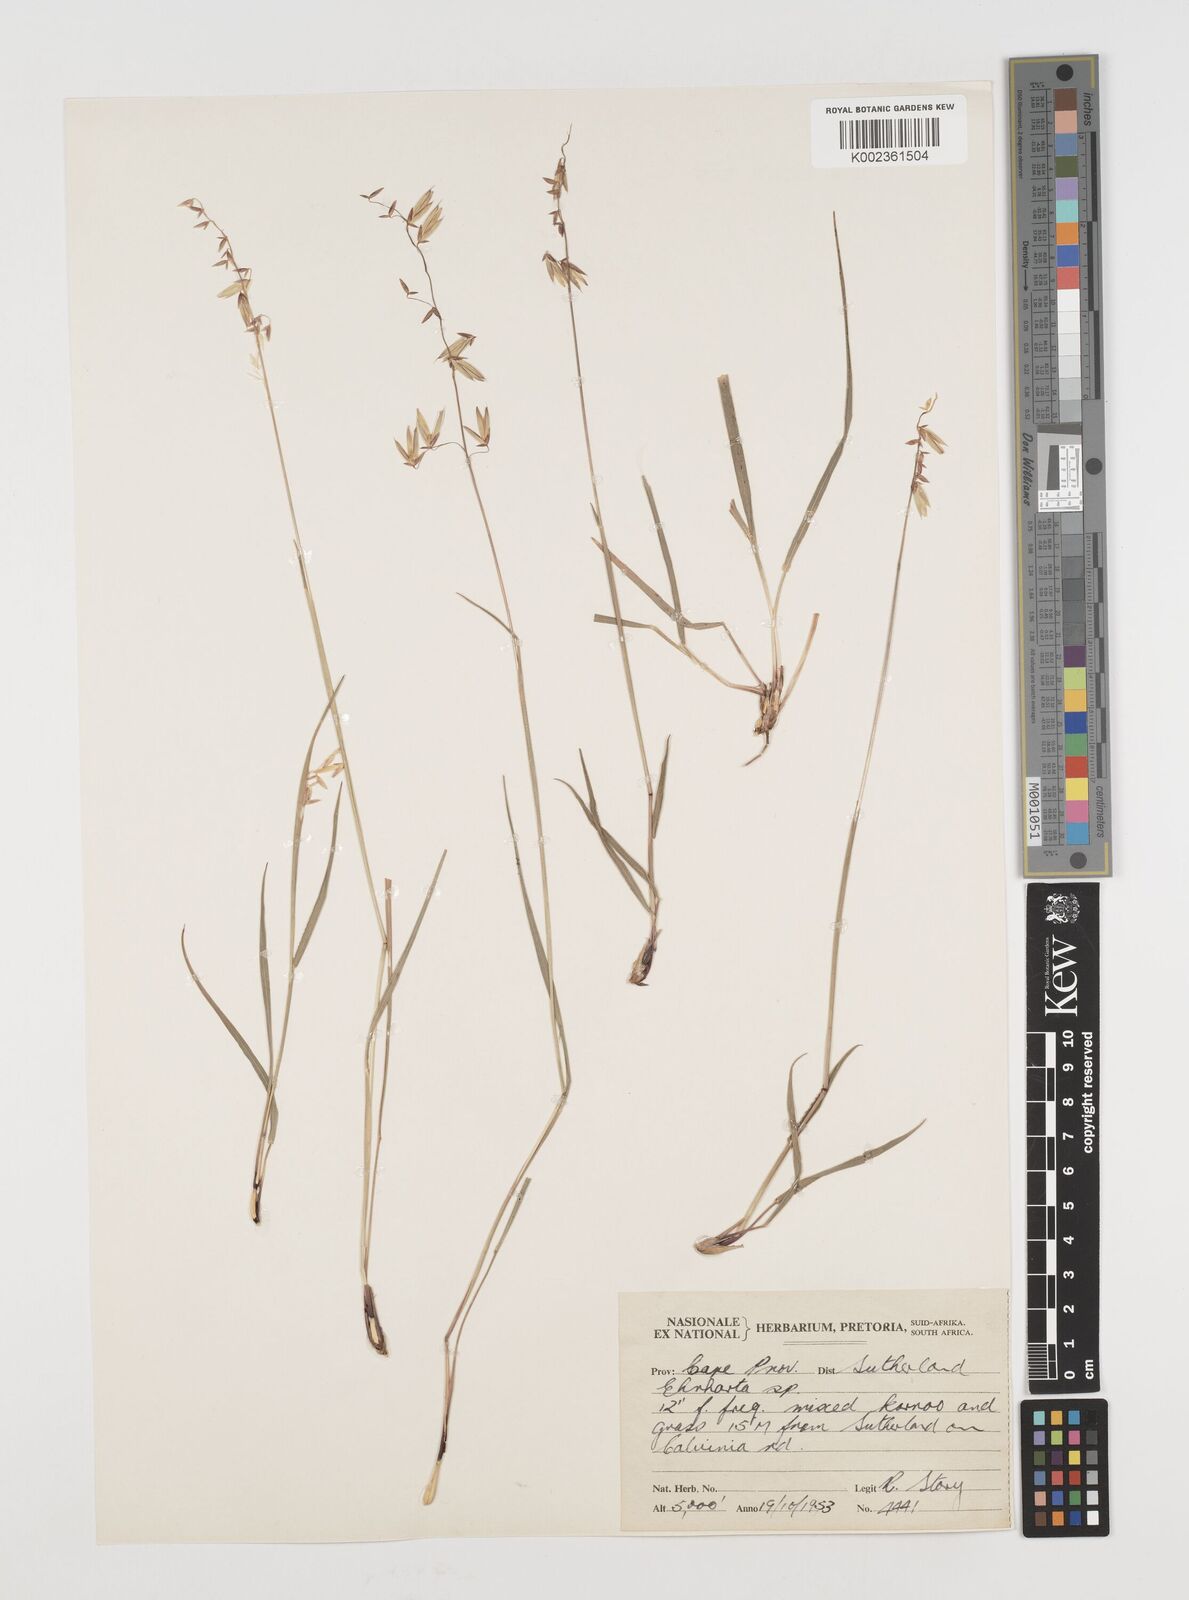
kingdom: Plantae
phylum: Tracheophyta
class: Liliopsida
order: Poales
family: Poaceae
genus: Ehrharta
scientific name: Ehrharta eburnea
